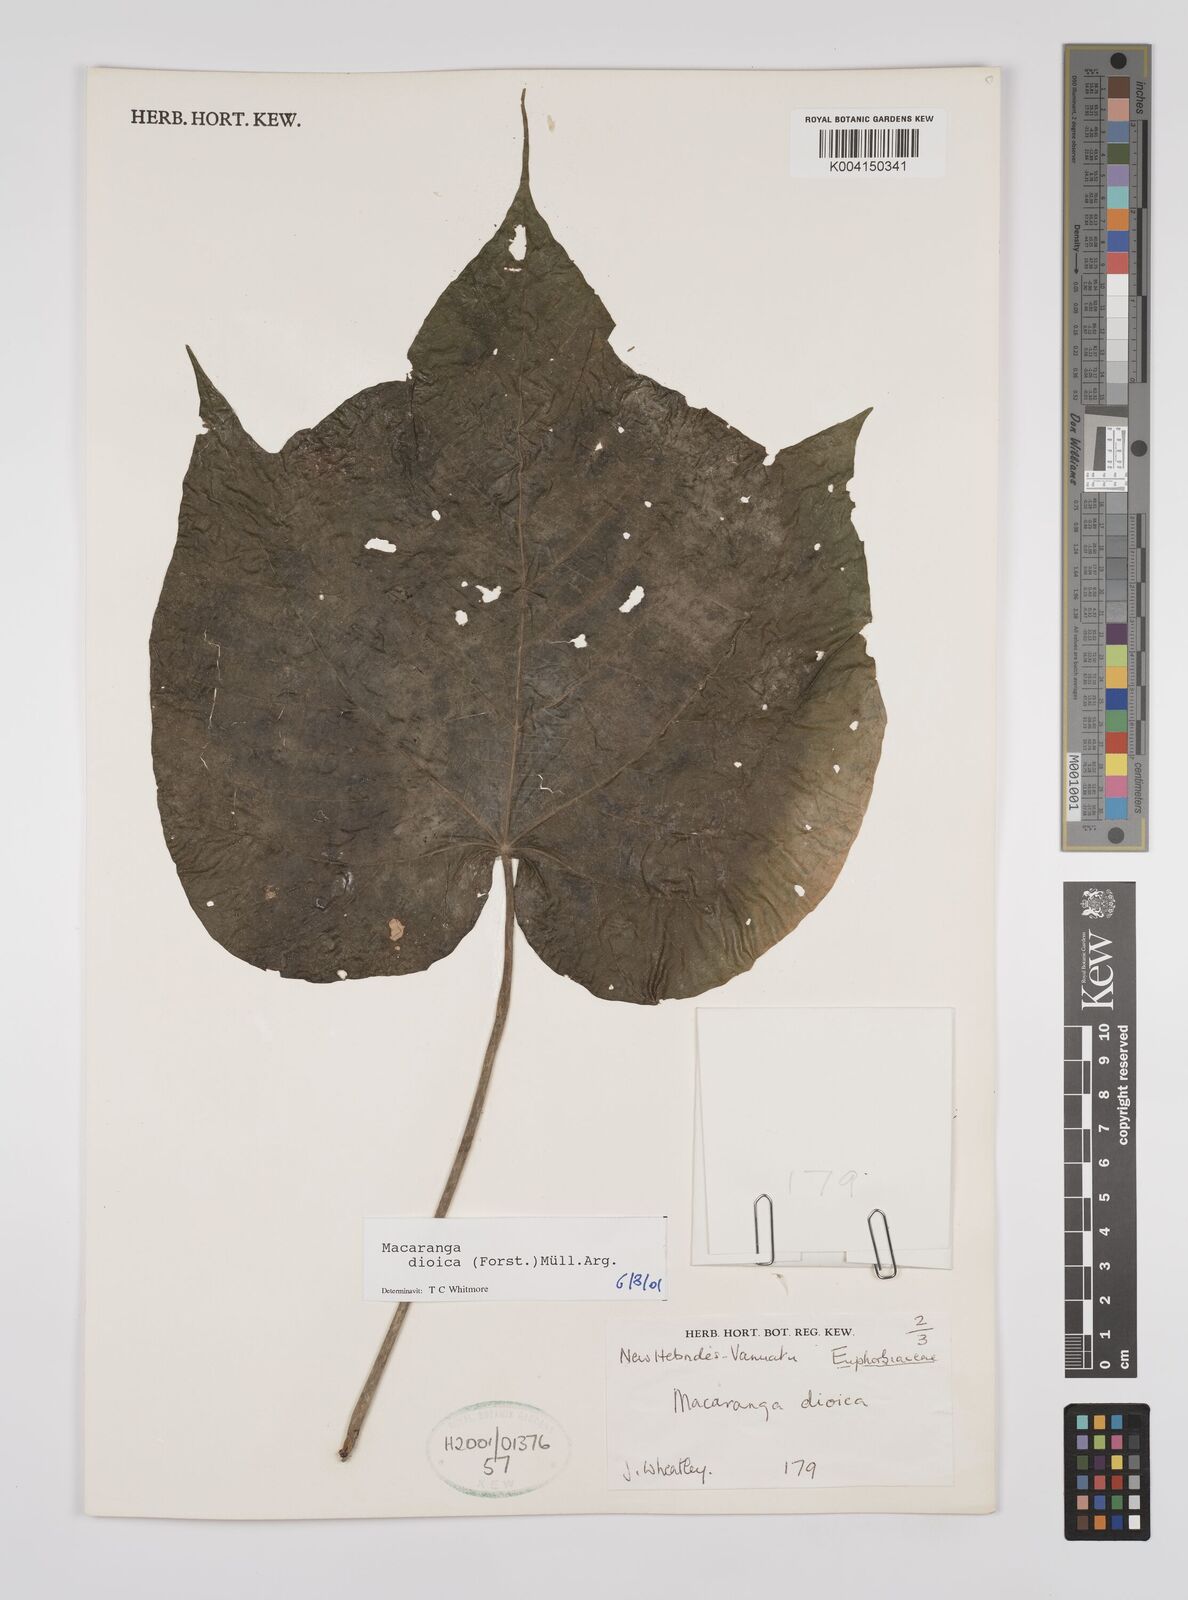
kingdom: Plantae
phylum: Tracheophyta
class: Magnoliopsida
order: Malpighiales
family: Euphorbiaceae
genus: Macaranga
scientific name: Macaranga dioica
